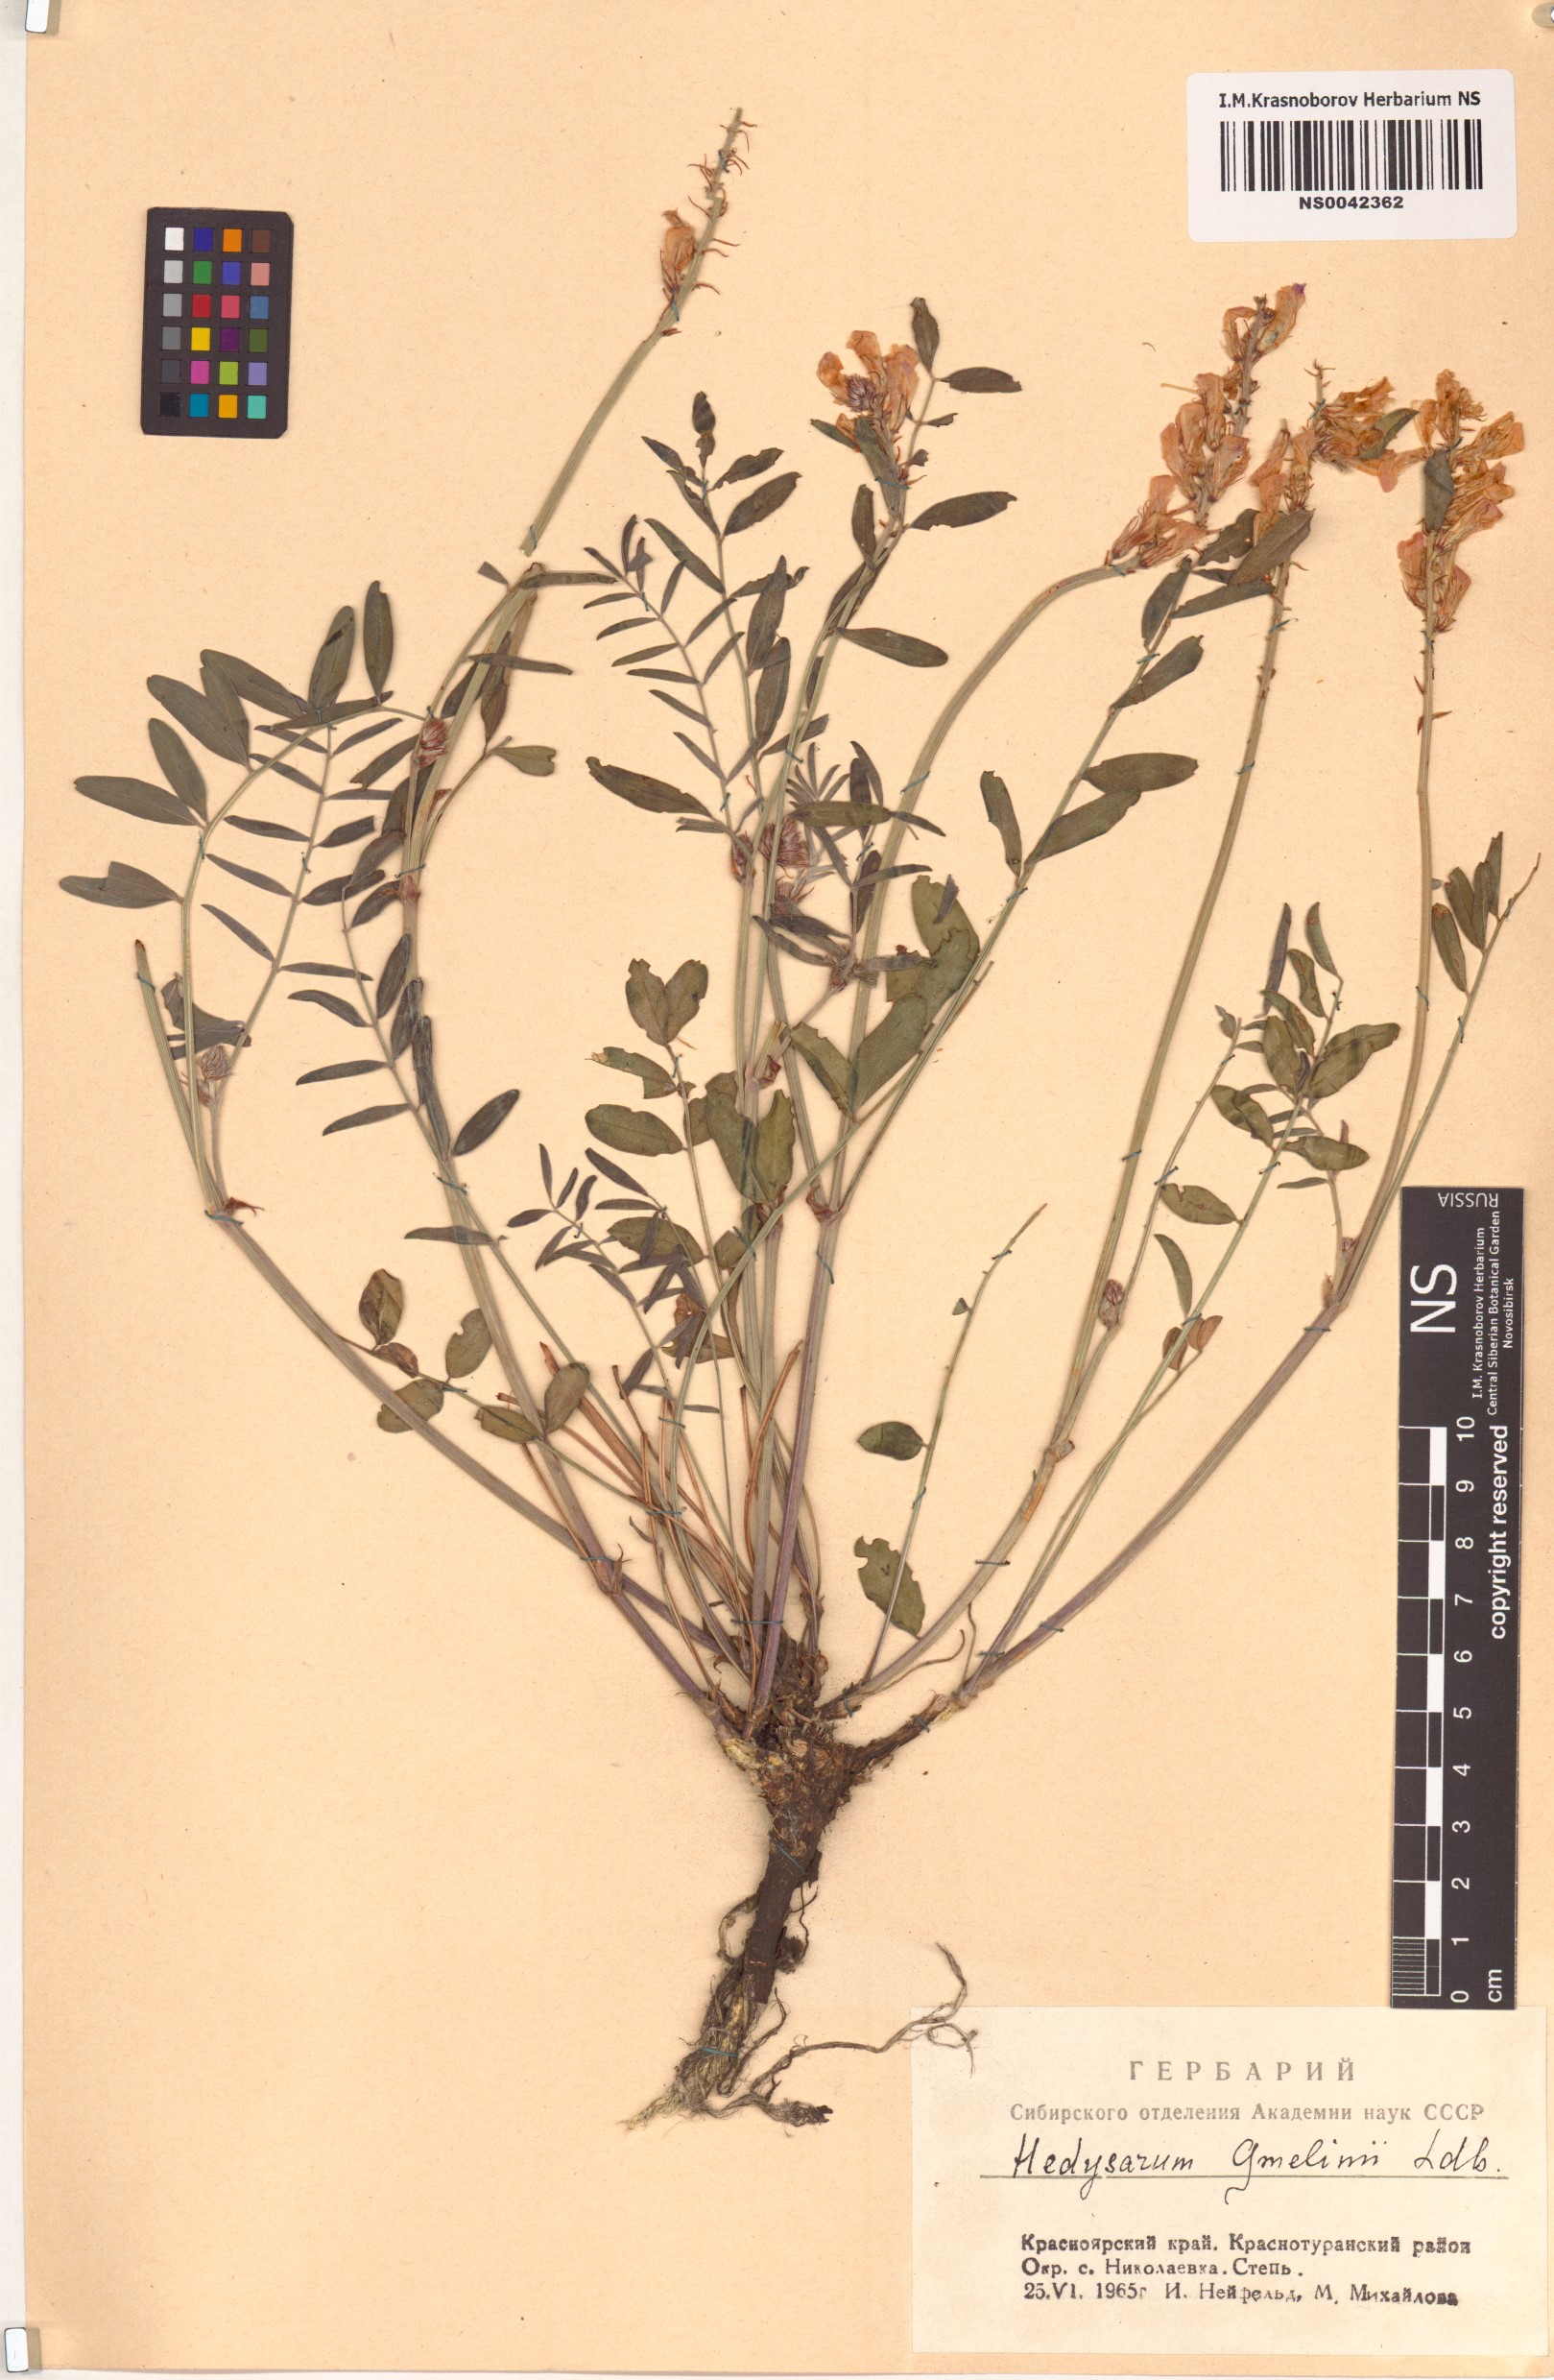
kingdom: Plantae
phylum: Tracheophyta
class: Magnoliopsida
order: Fabales
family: Fabaceae
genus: Hedysarum
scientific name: Hedysarum gmelinii
